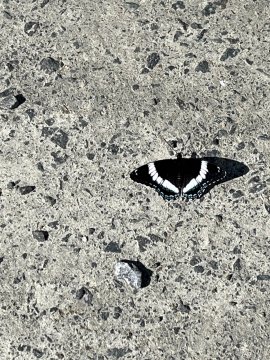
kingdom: Animalia
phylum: Arthropoda
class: Insecta
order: Lepidoptera
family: Nymphalidae
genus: Limenitis
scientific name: Limenitis arthemis
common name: Red-spotted Admiral
